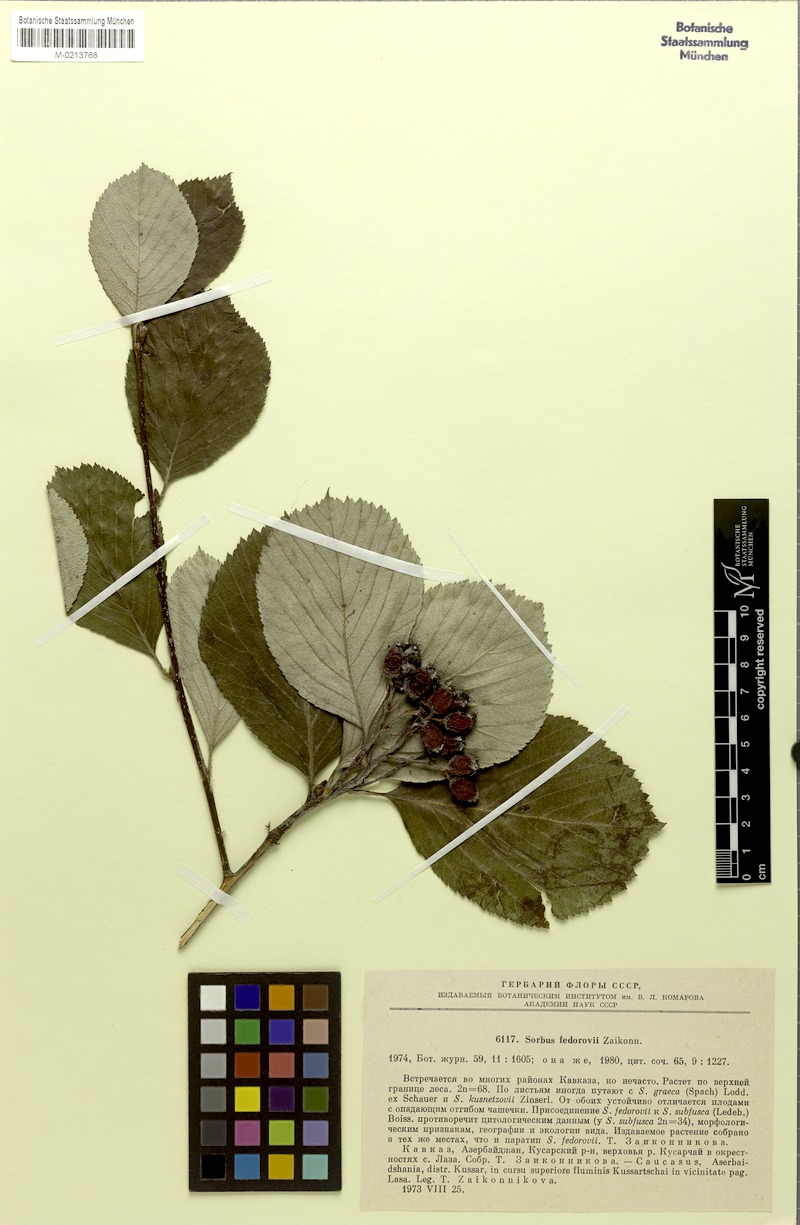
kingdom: Plantae
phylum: Tracheophyta
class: Magnoliopsida
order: Rosales
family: Rosaceae
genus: Sorbus
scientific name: Sorbus subfusca
